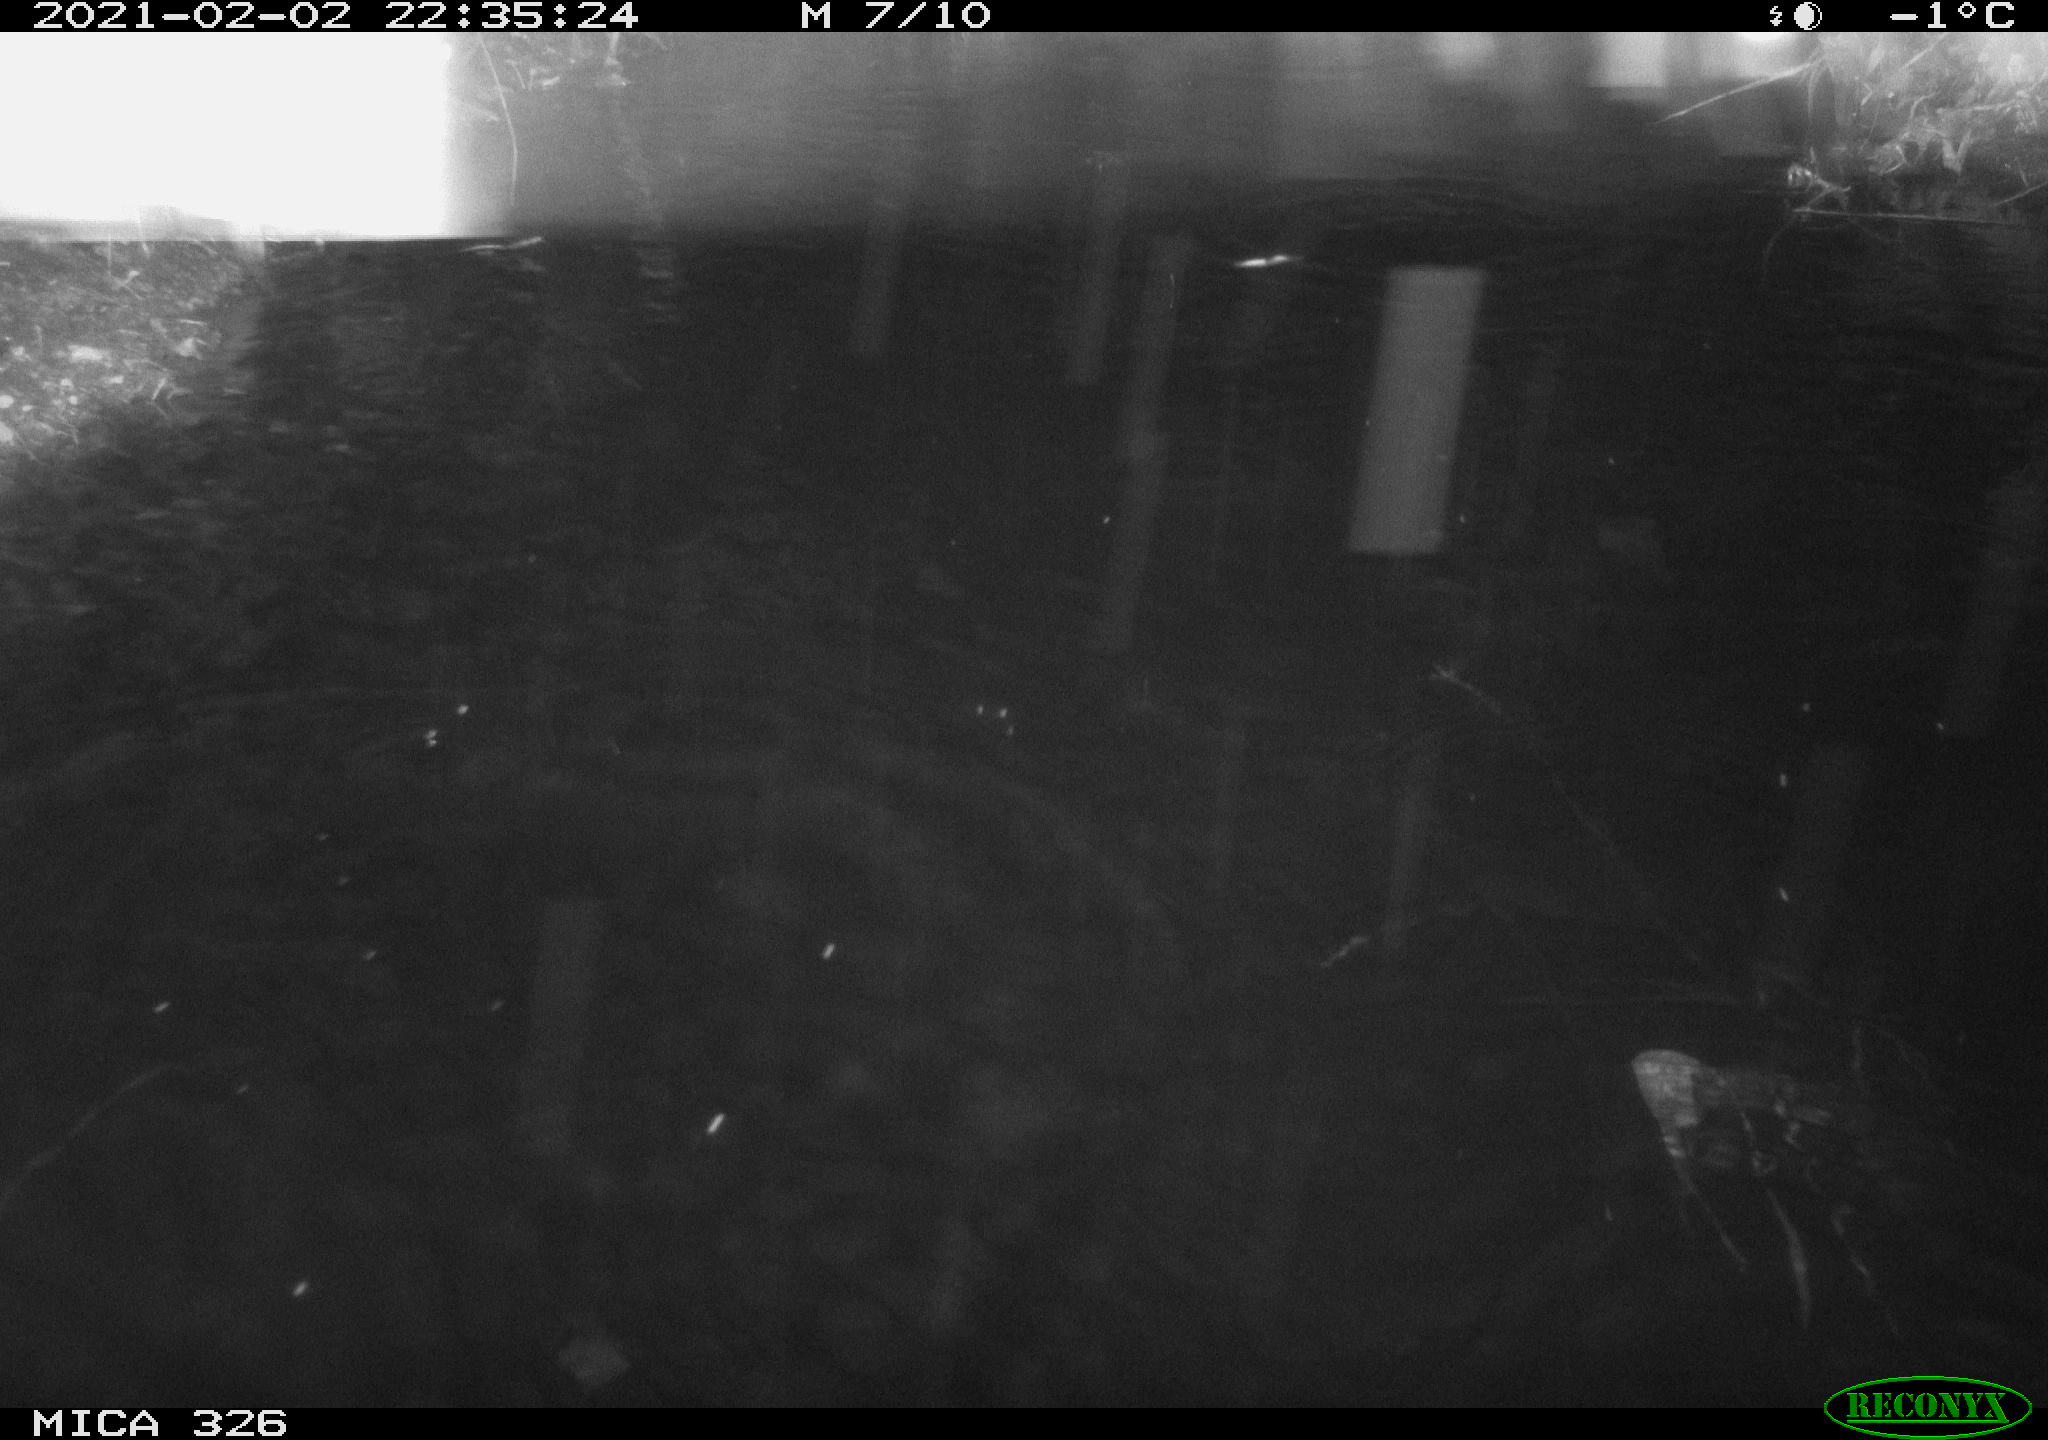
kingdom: Animalia
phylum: Chordata
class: Mammalia
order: Rodentia
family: Cricetidae
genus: Ondatra
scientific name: Ondatra zibethicus
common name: Muskrat
